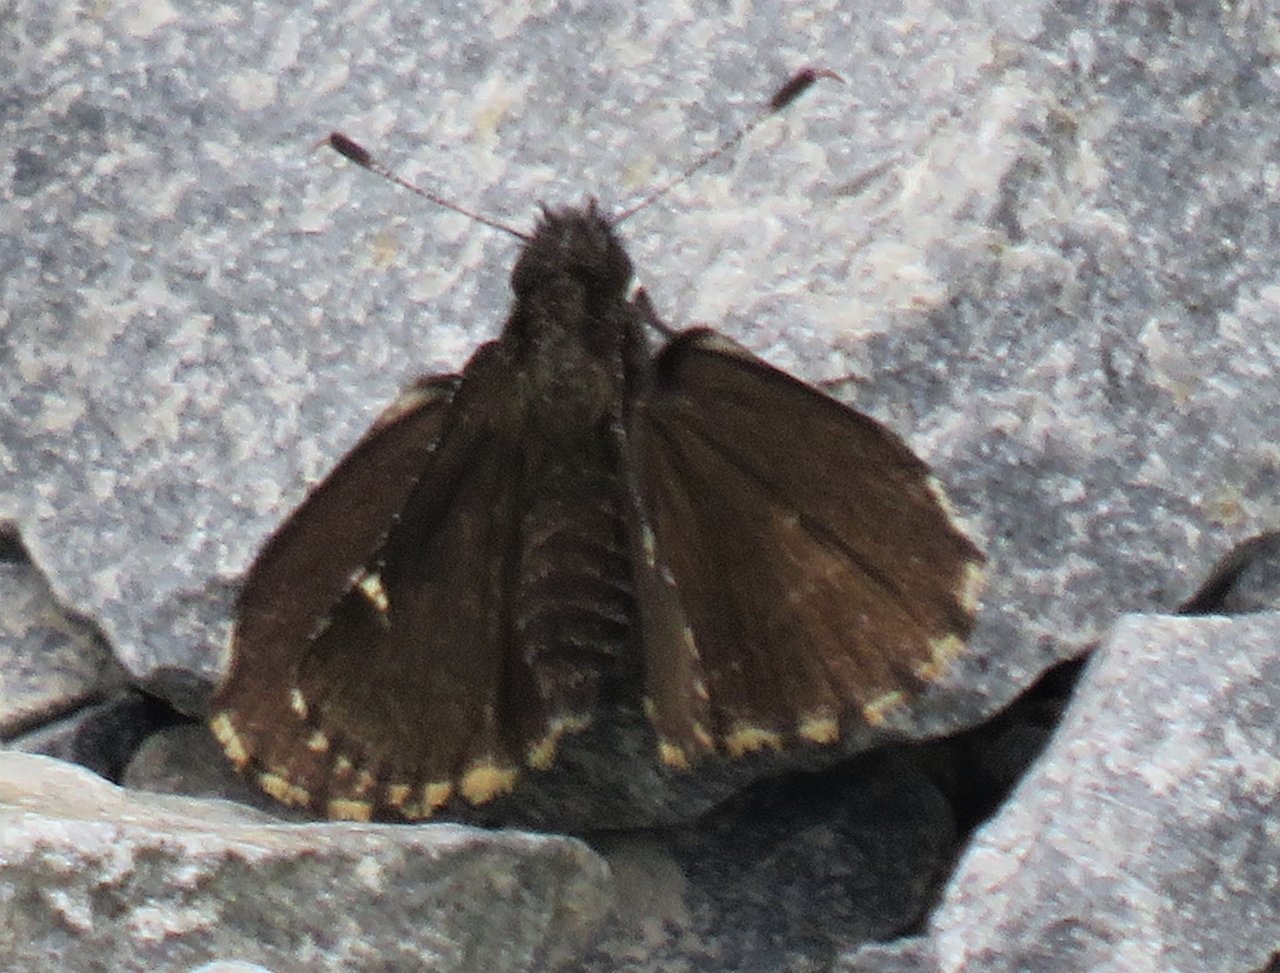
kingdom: Animalia
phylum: Arthropoda
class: Insecta
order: Lepidoptera
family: Hesperiidae
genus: Mastor
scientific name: Mastor vialis
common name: Common Roadside-Skipper
